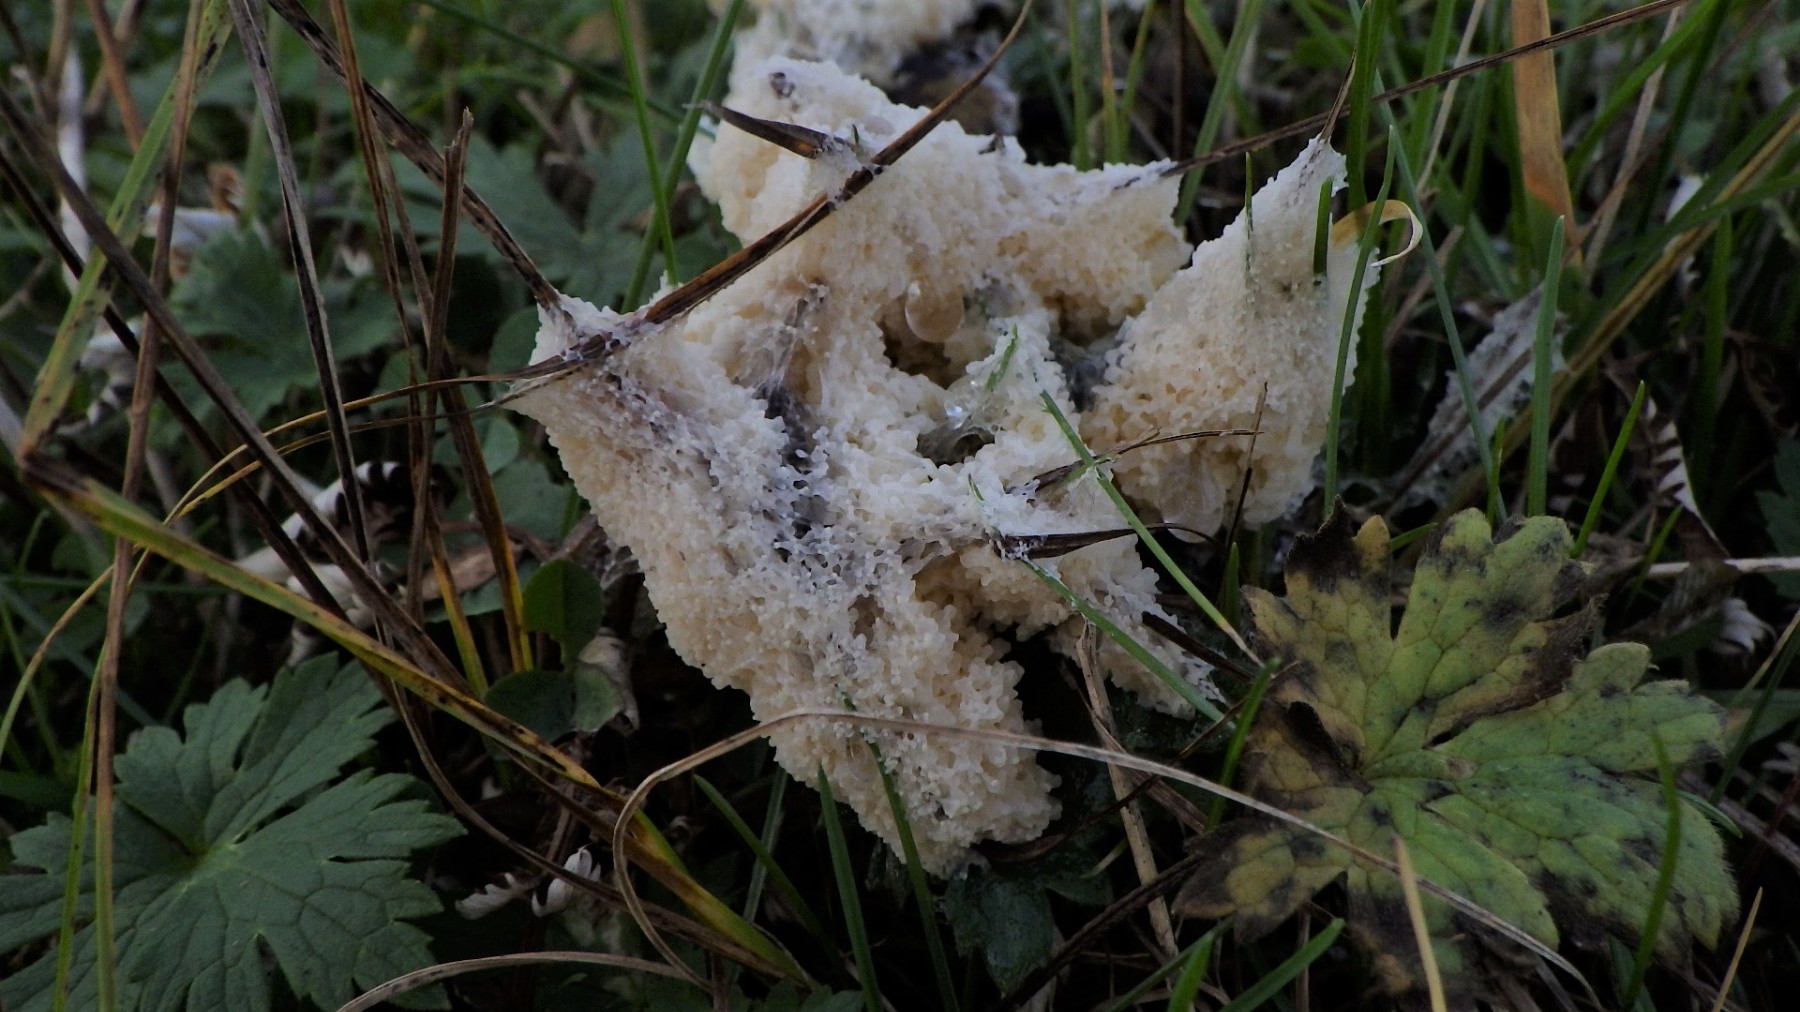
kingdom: Protozoa
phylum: Mycetozoa
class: Myxomycetes
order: Physarales
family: Physaraceae
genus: Didymium
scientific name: Didymium
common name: urteskum
